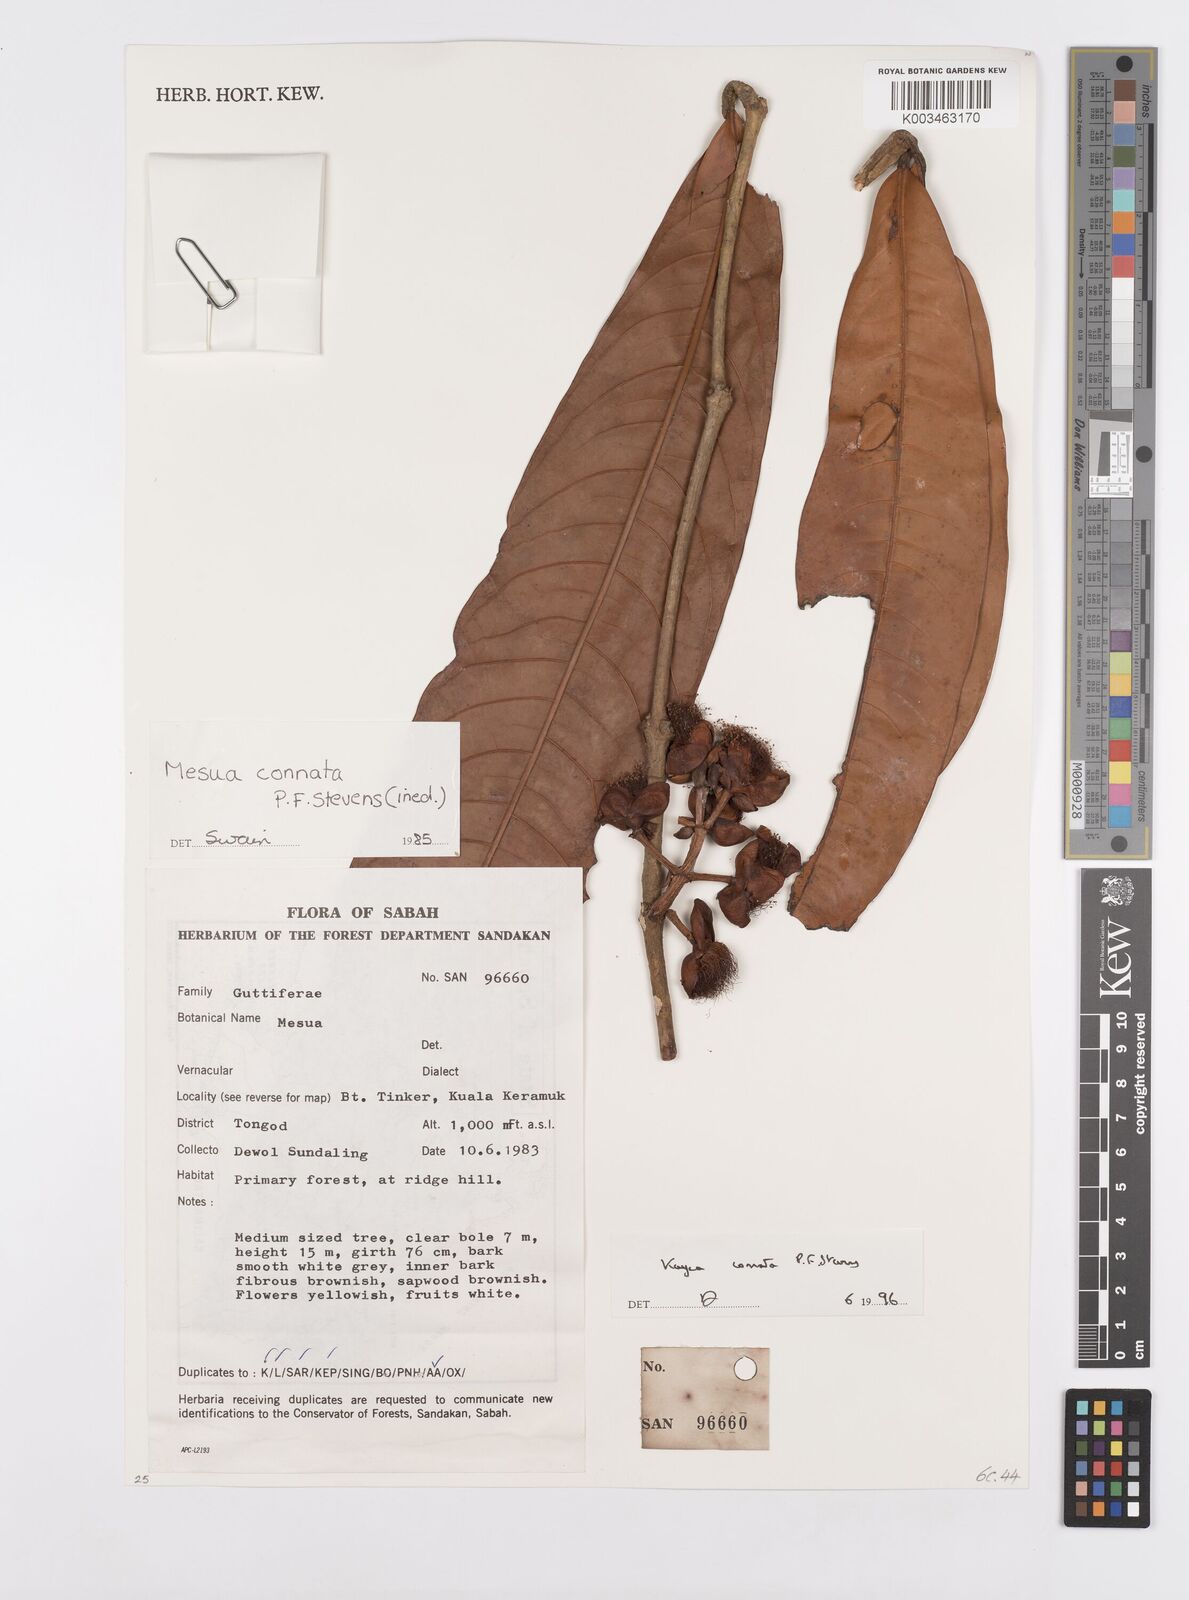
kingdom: Plantae
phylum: Tracheophyta
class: Magnoliopsida
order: Malpighiales
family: Calophyllaceae
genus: Kayea
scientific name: Kayea
